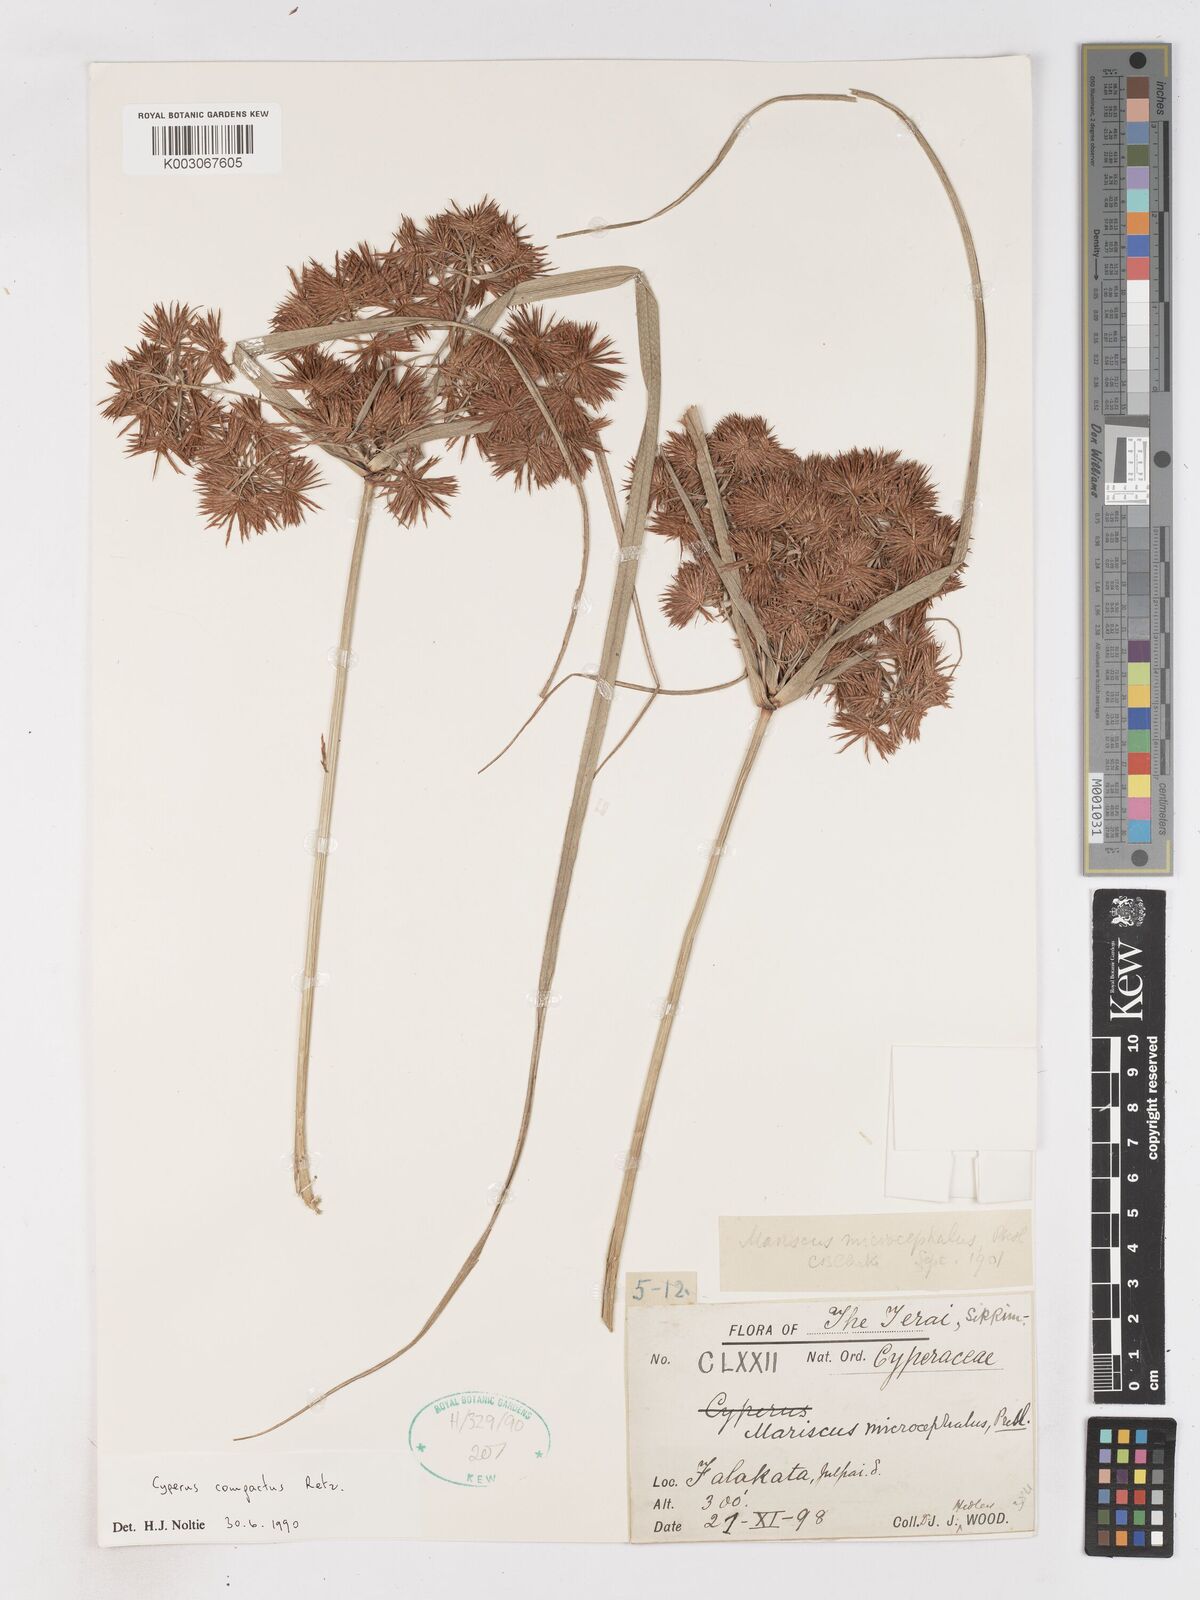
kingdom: Plantae
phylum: Tracheophyta
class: Liliopsida
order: Poales
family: Cyperaceae
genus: Cyperus
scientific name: Cyperus compactus
